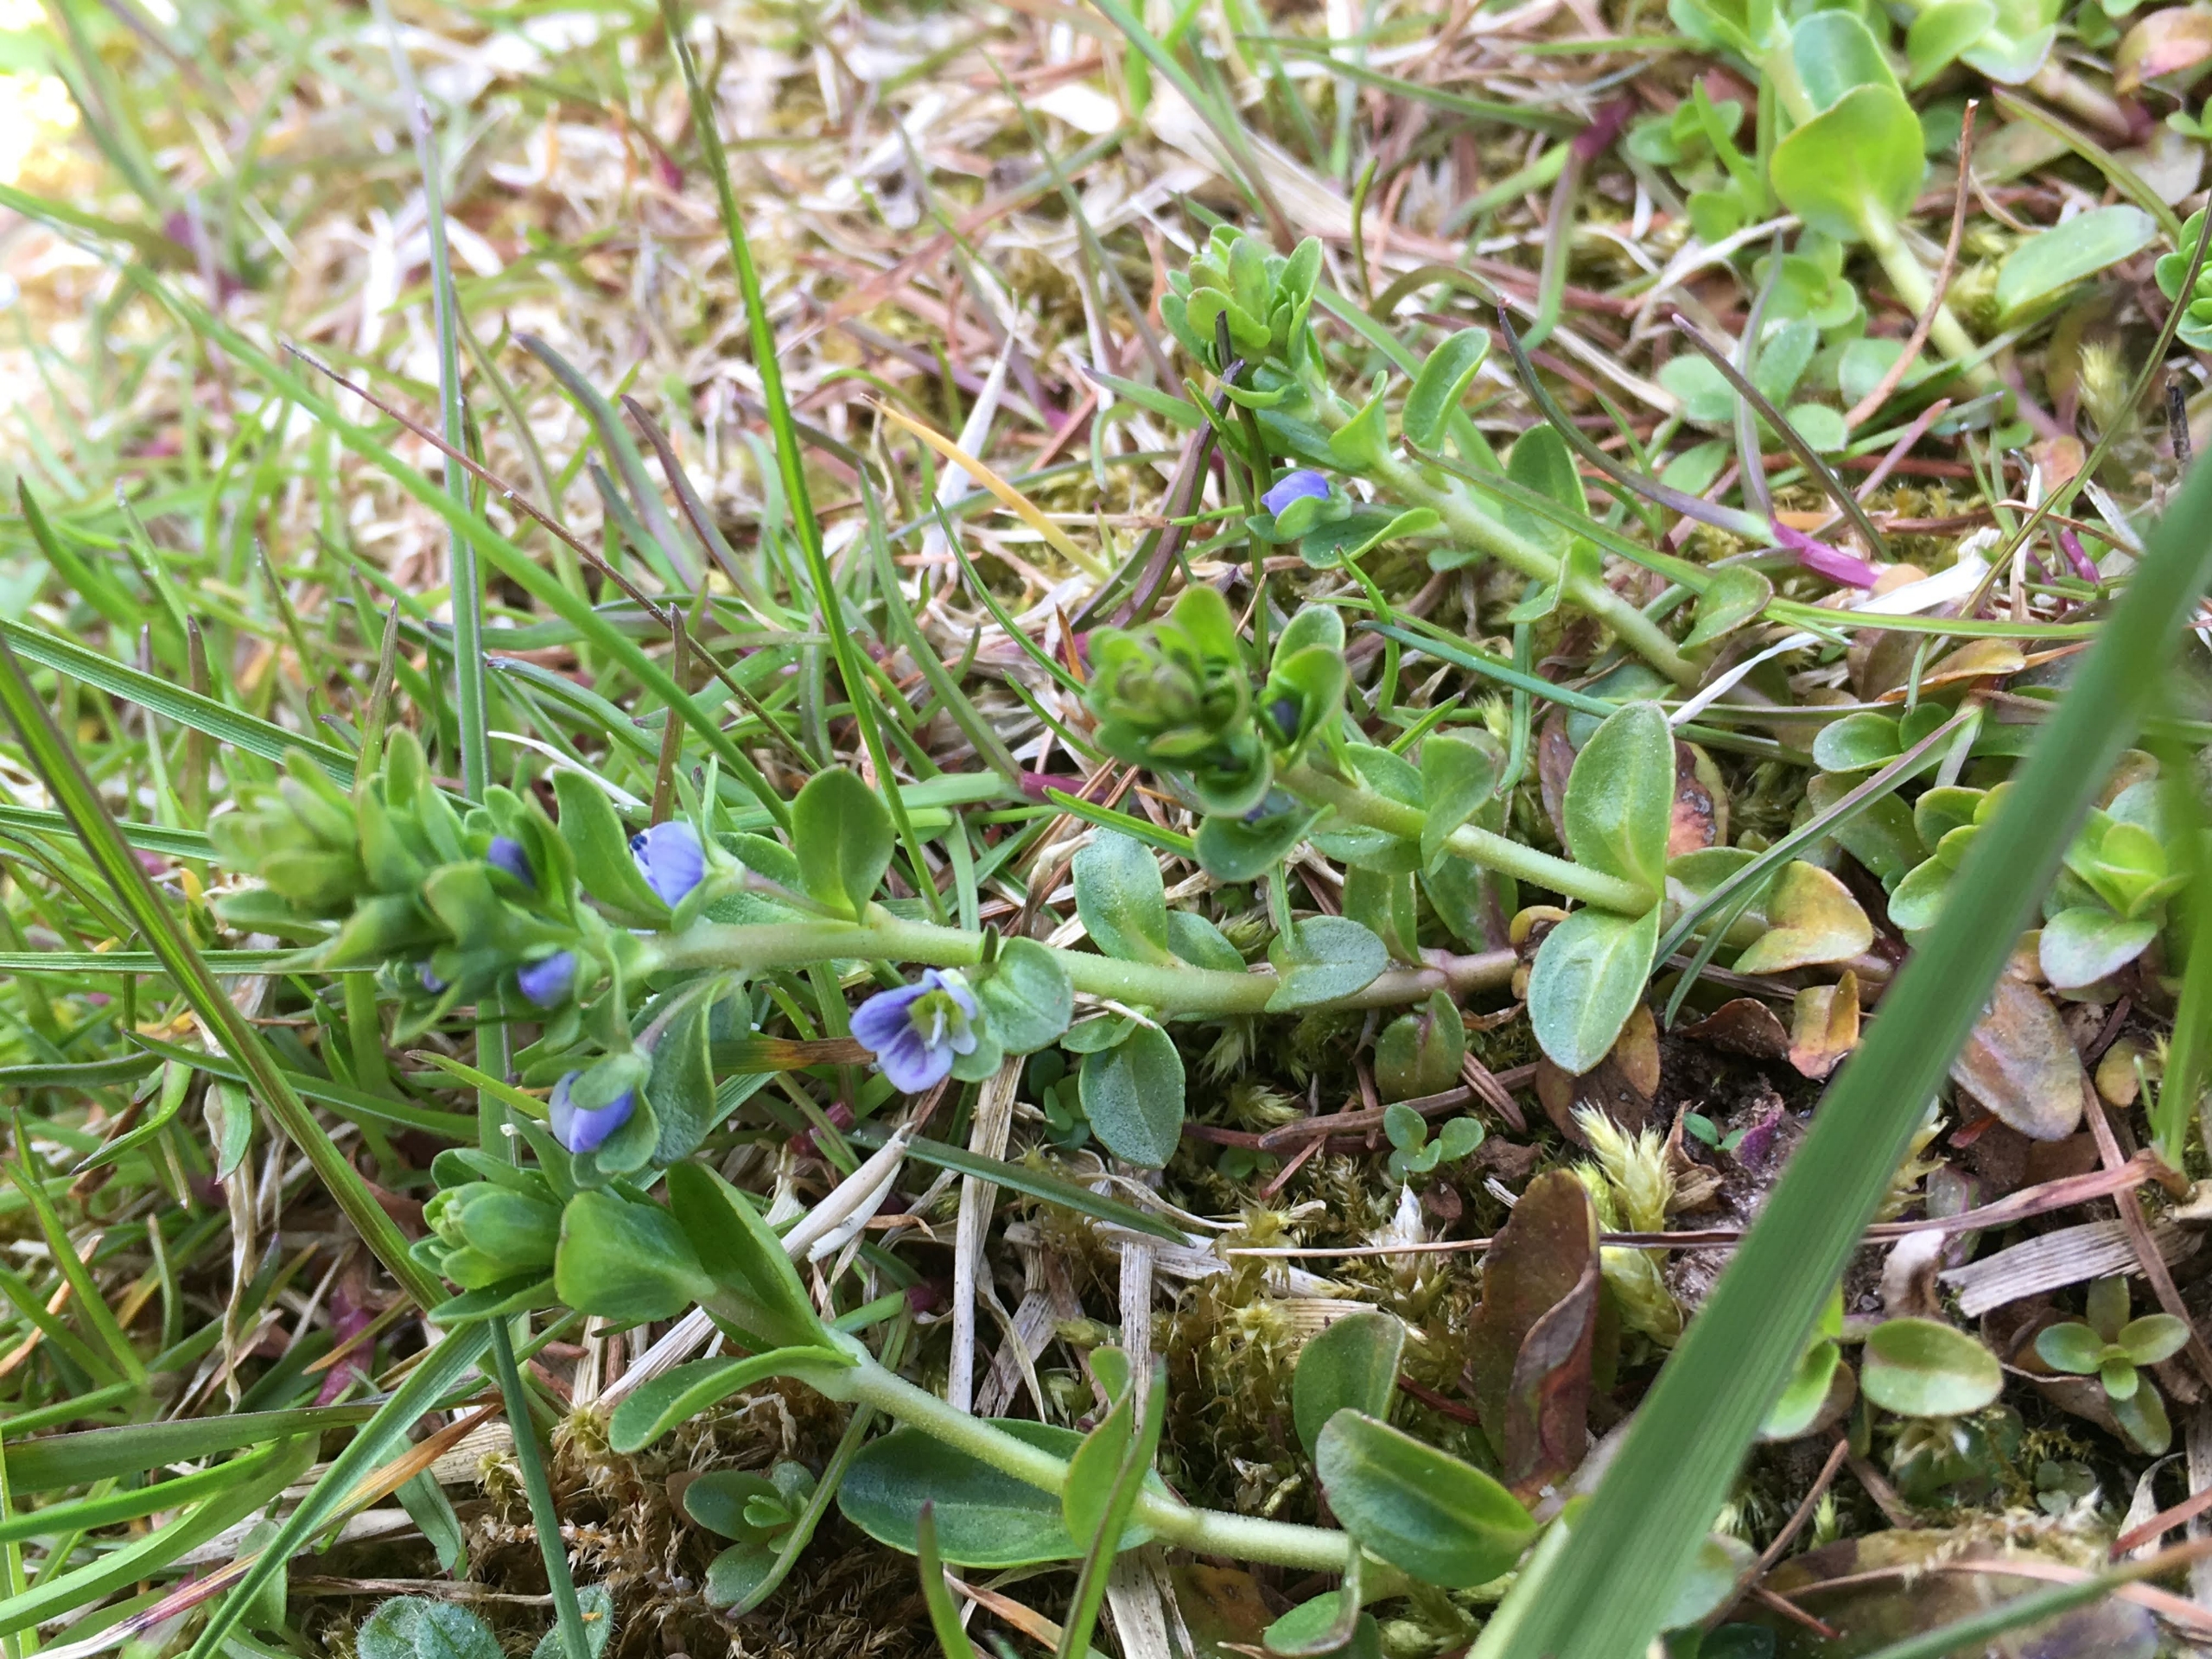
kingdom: Plantae
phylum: Tracheophyta
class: Magnoliopsida
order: Lamiales
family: Plantaginaceae
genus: Veronica
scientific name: Veronica serpyllifolia
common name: Glat ærenpris
